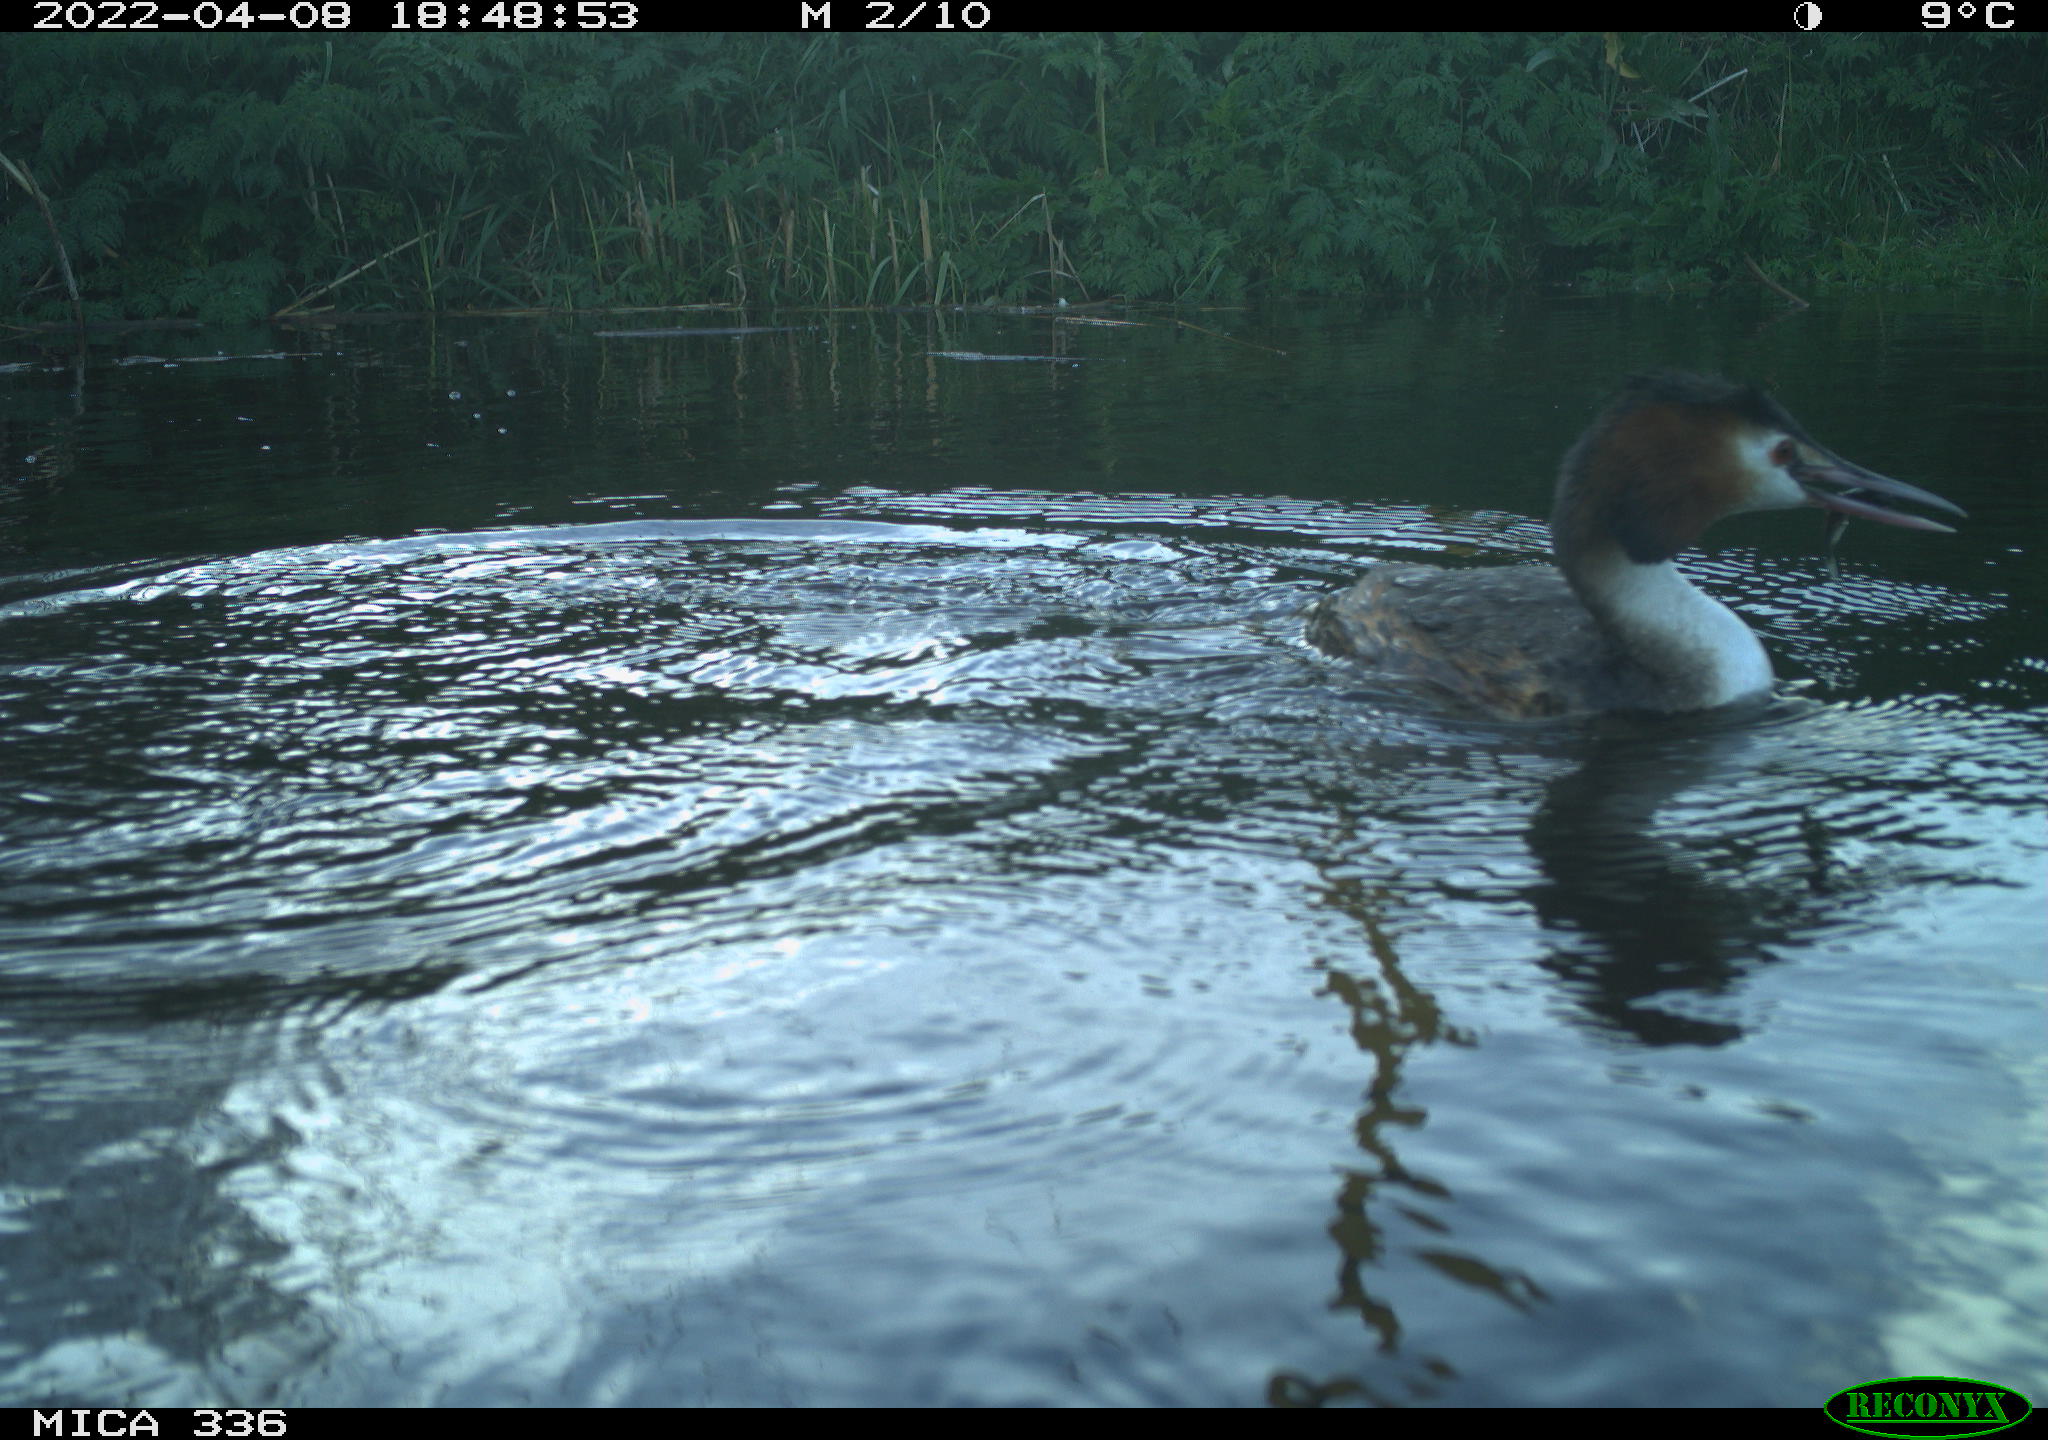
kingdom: Animalia
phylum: Chordata
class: Aves
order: Podicipediformes
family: Podicipedidae
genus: Podiceps
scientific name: Podiceps cristatus
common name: Great crested grebe
